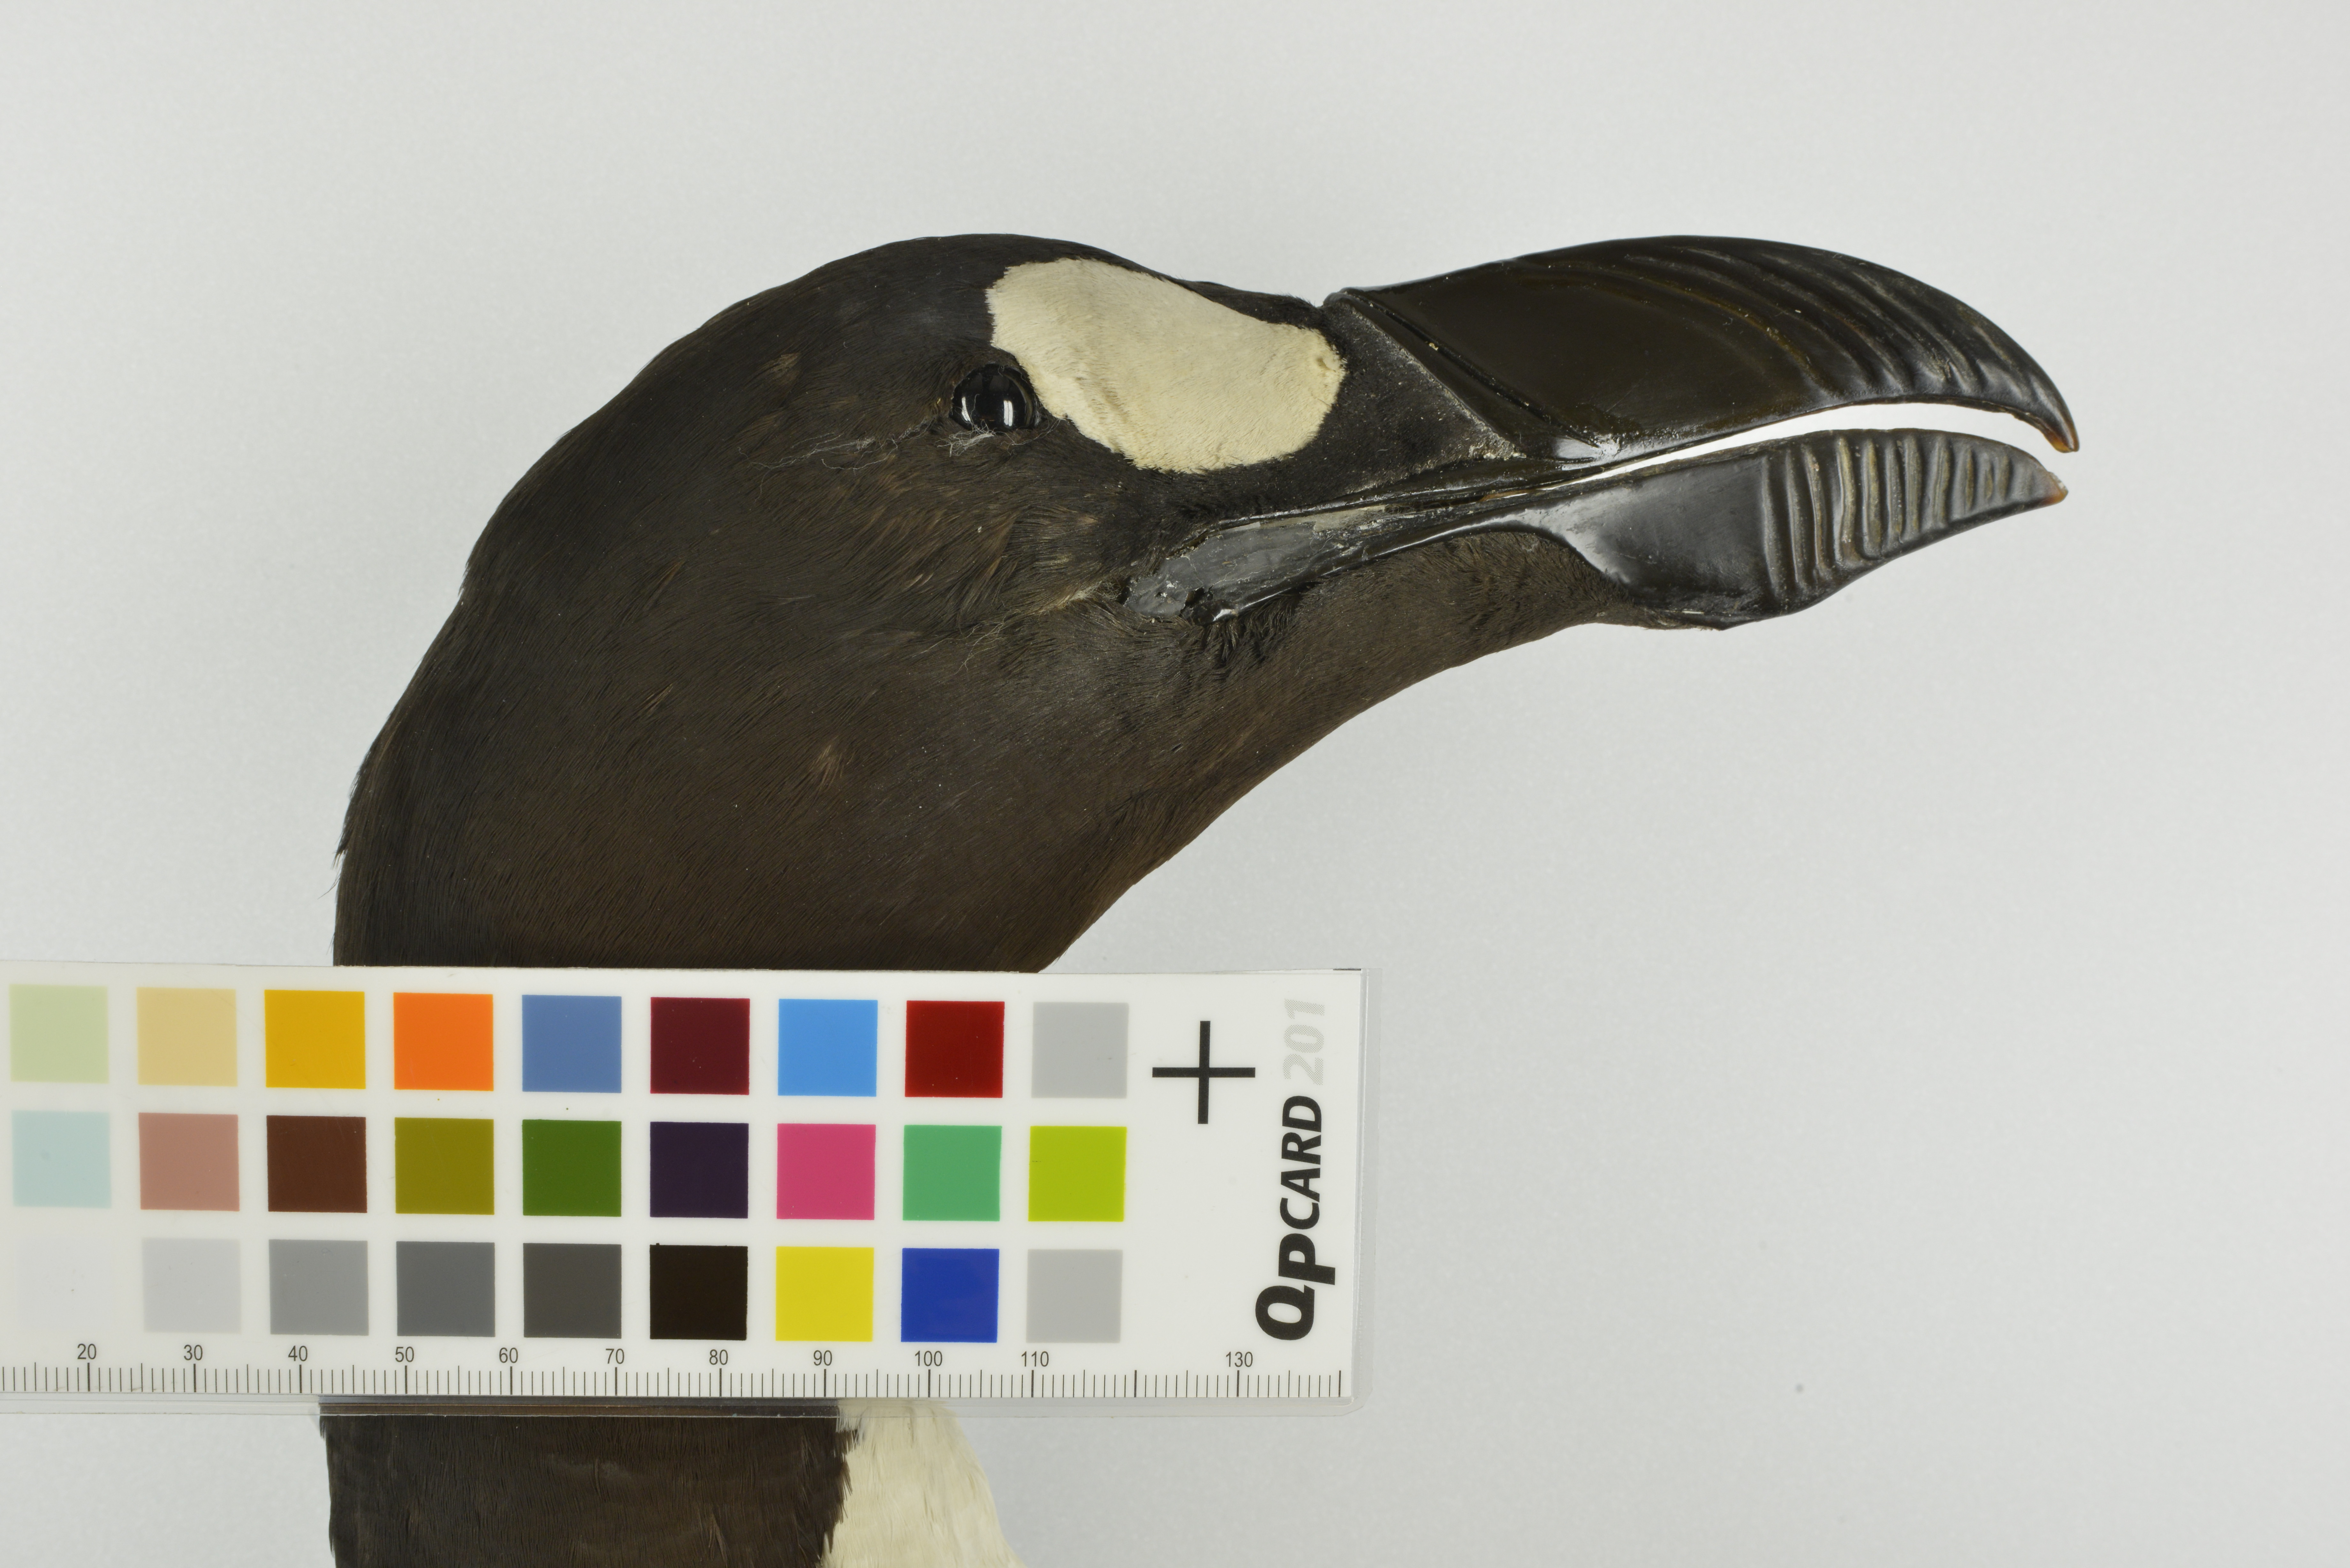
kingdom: Animalia
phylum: Chordata
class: Aves
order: Charadriiformes
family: Alcidae
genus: Pinguinus
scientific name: Pinguinus impennis
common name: Great auk
